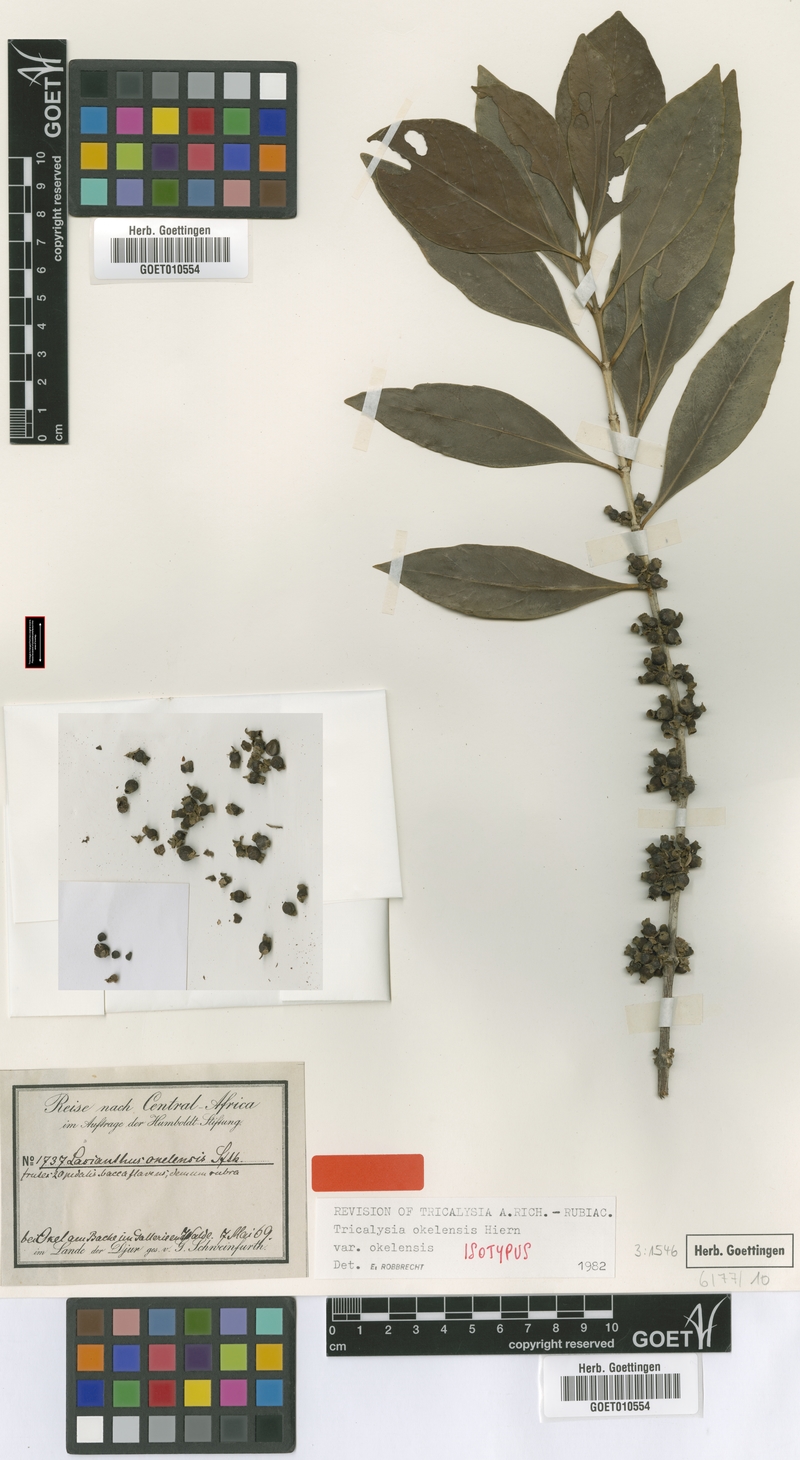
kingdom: Plantae
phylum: Tracheophyta
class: Magnoliopsida
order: Gentianales
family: Rubiaceae
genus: Tricalysia
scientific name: Tricalysia okelensis
